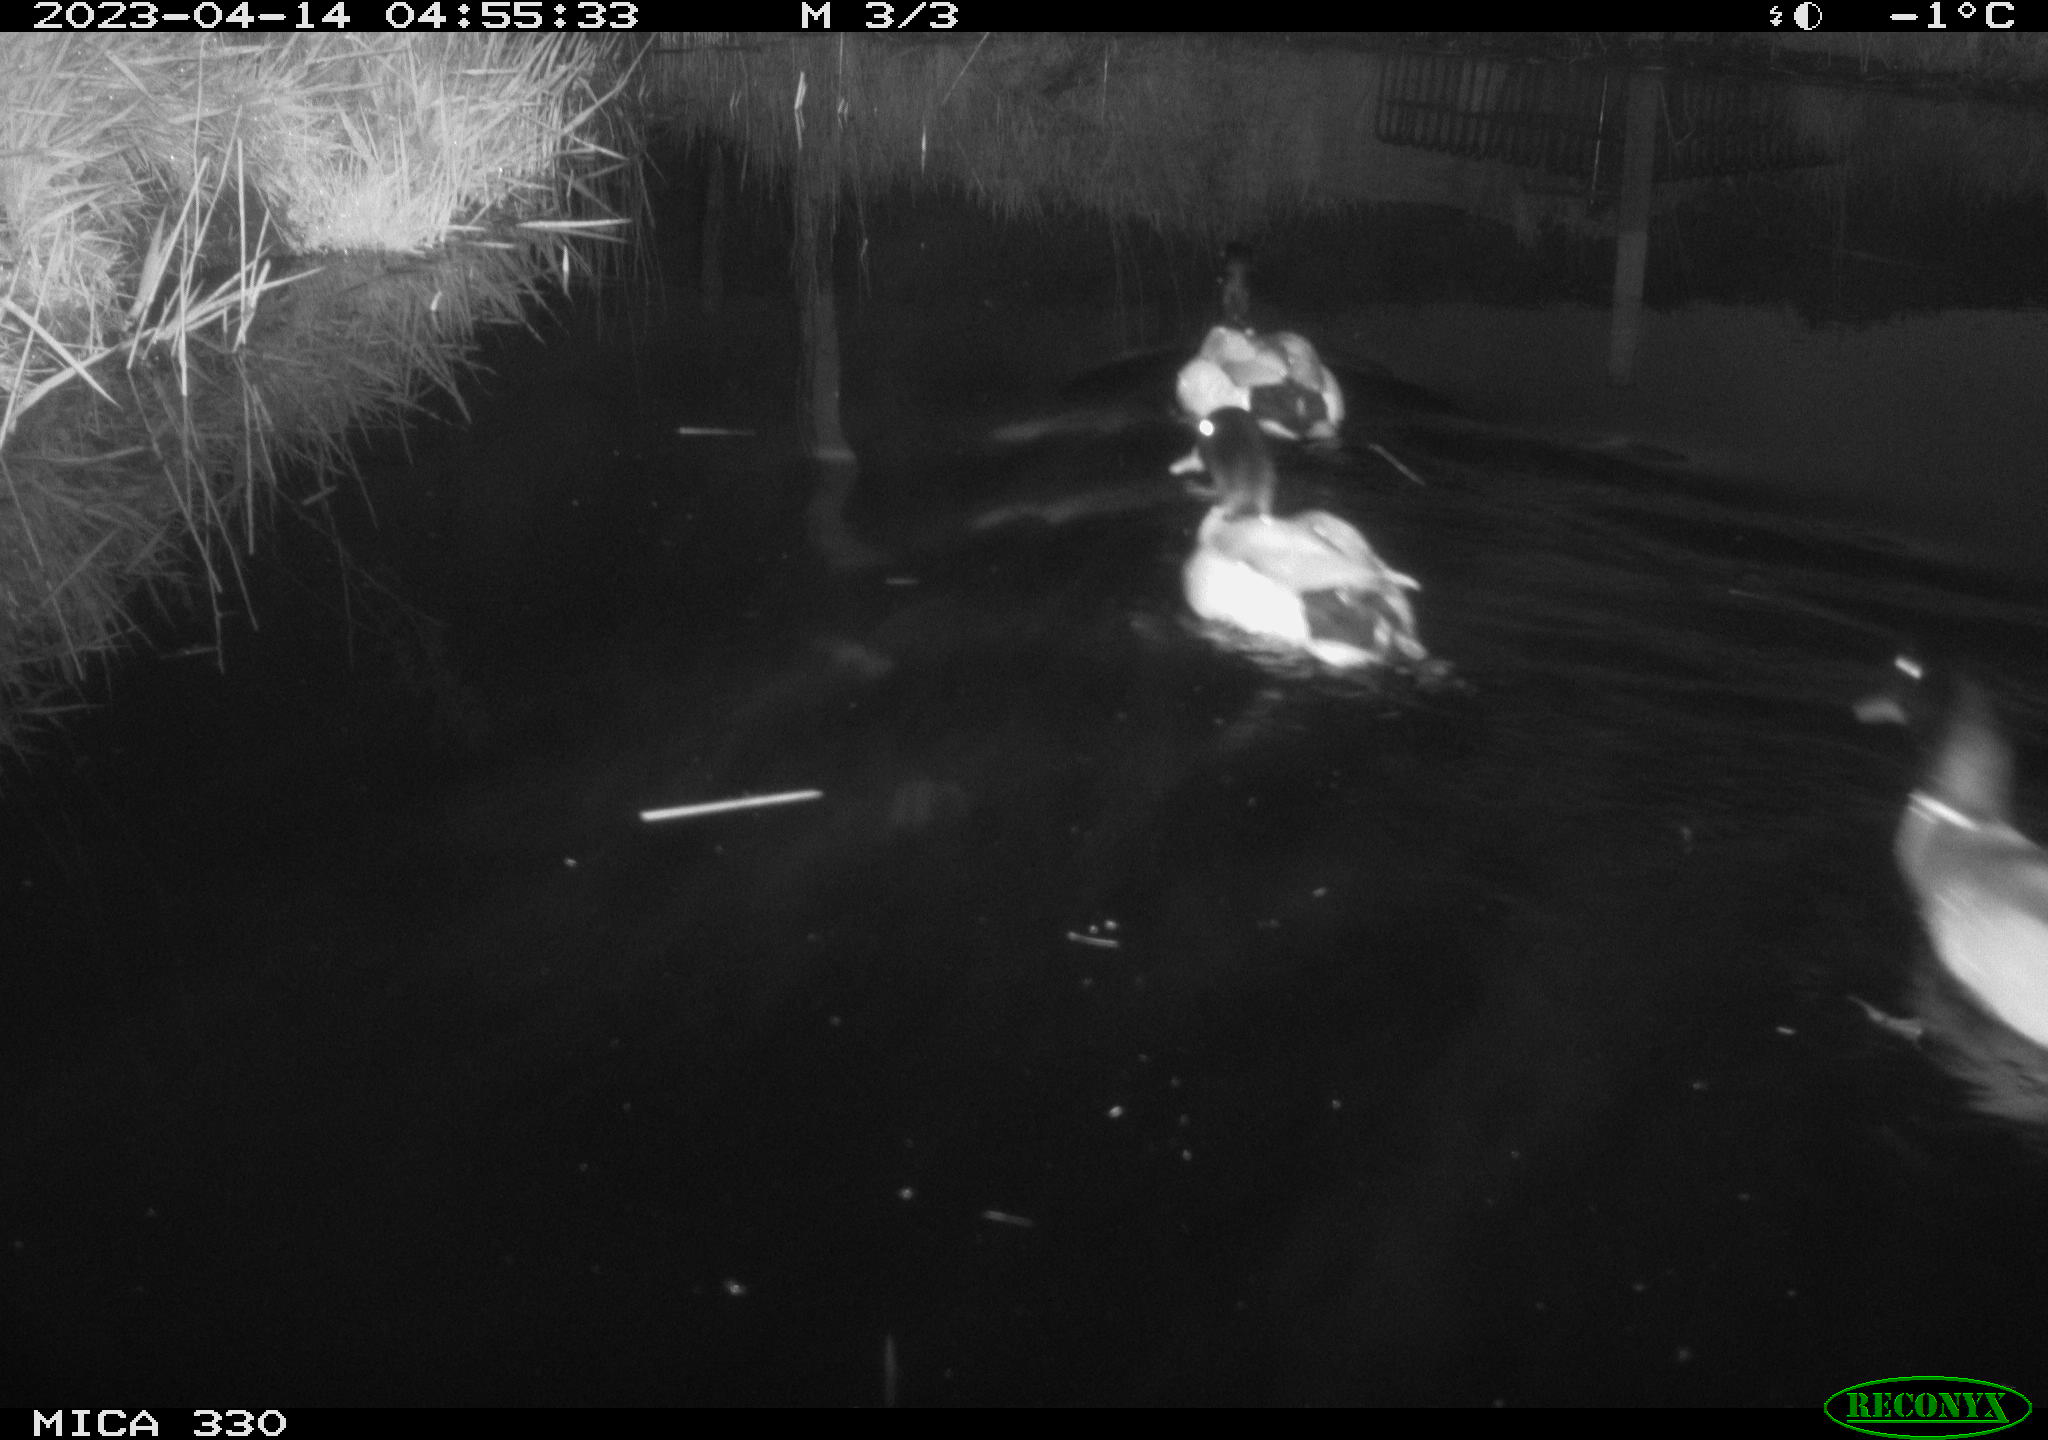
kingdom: Animalia
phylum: Chordata
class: Aves
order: Anseriformes
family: Anatidae
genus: Anas
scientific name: Anas platyrhynchos
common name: Mallard
